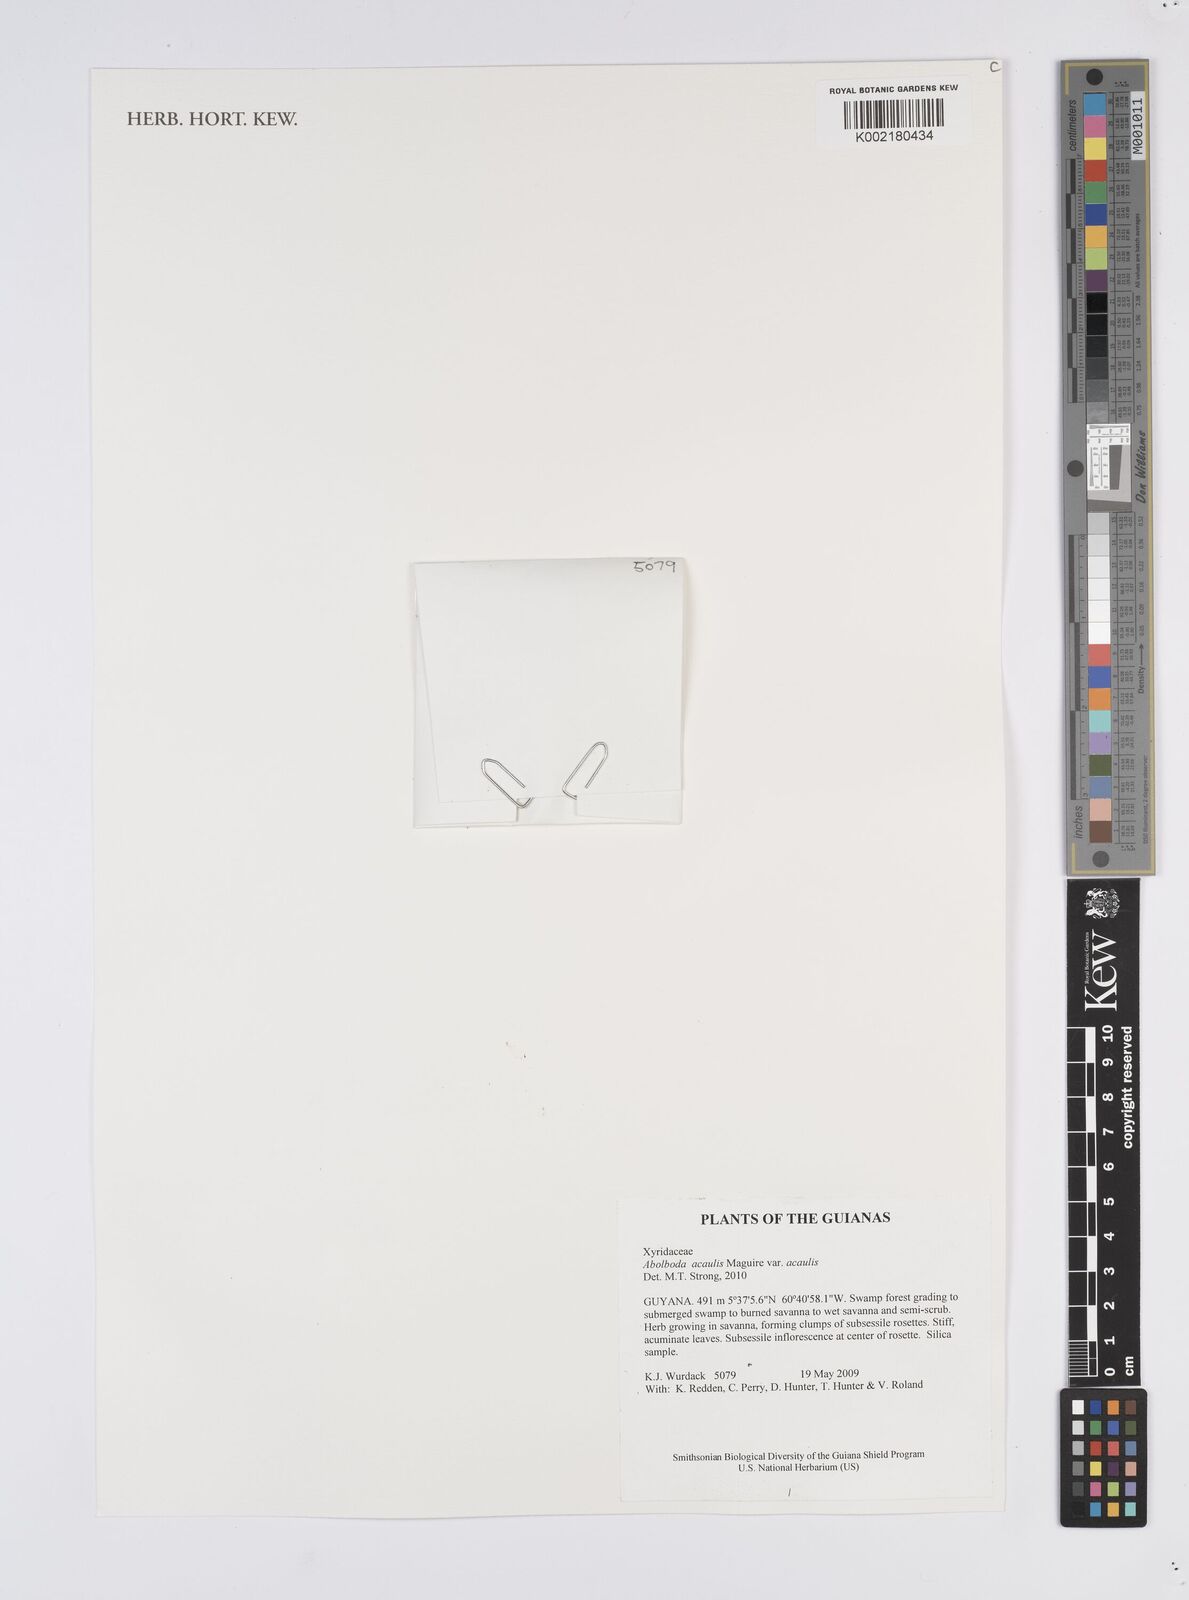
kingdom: Plantae
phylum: Tracheophyta
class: Liliopsida
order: Poales
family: Xyridaceae
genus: Abolboda
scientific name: Abolboda acaulis
